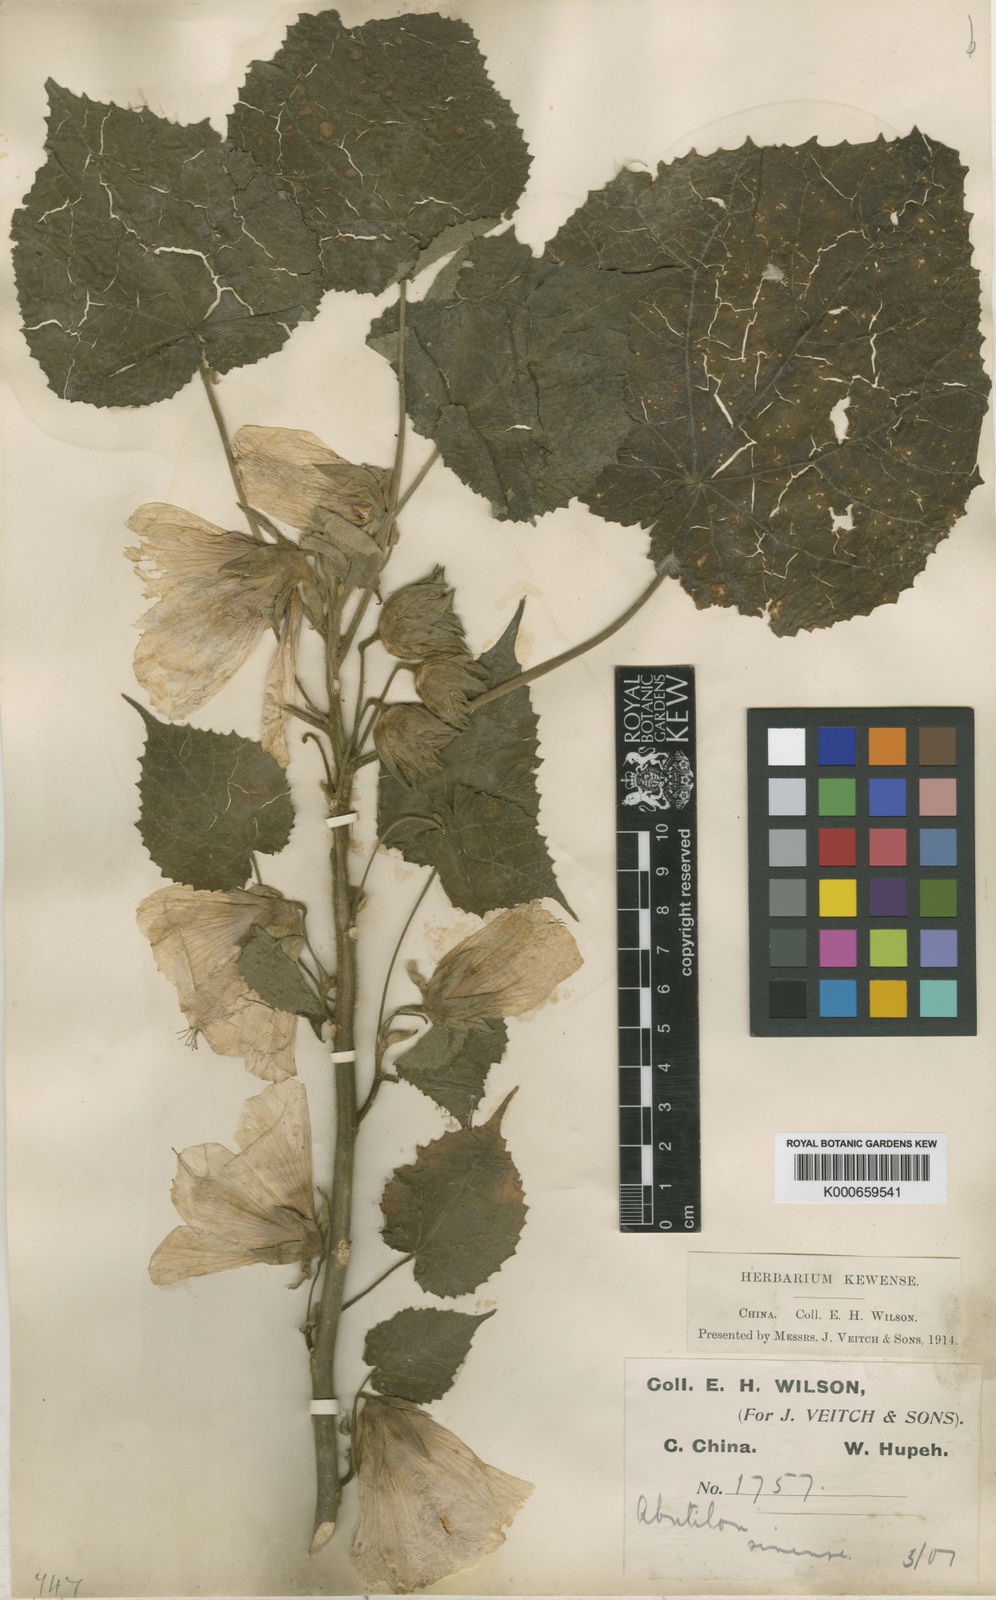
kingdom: Plantae
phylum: Tracheophyta
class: Magnoliopsida
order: Malvales
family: Malvaceae
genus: Abutilon
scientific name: Abutilon sinense
